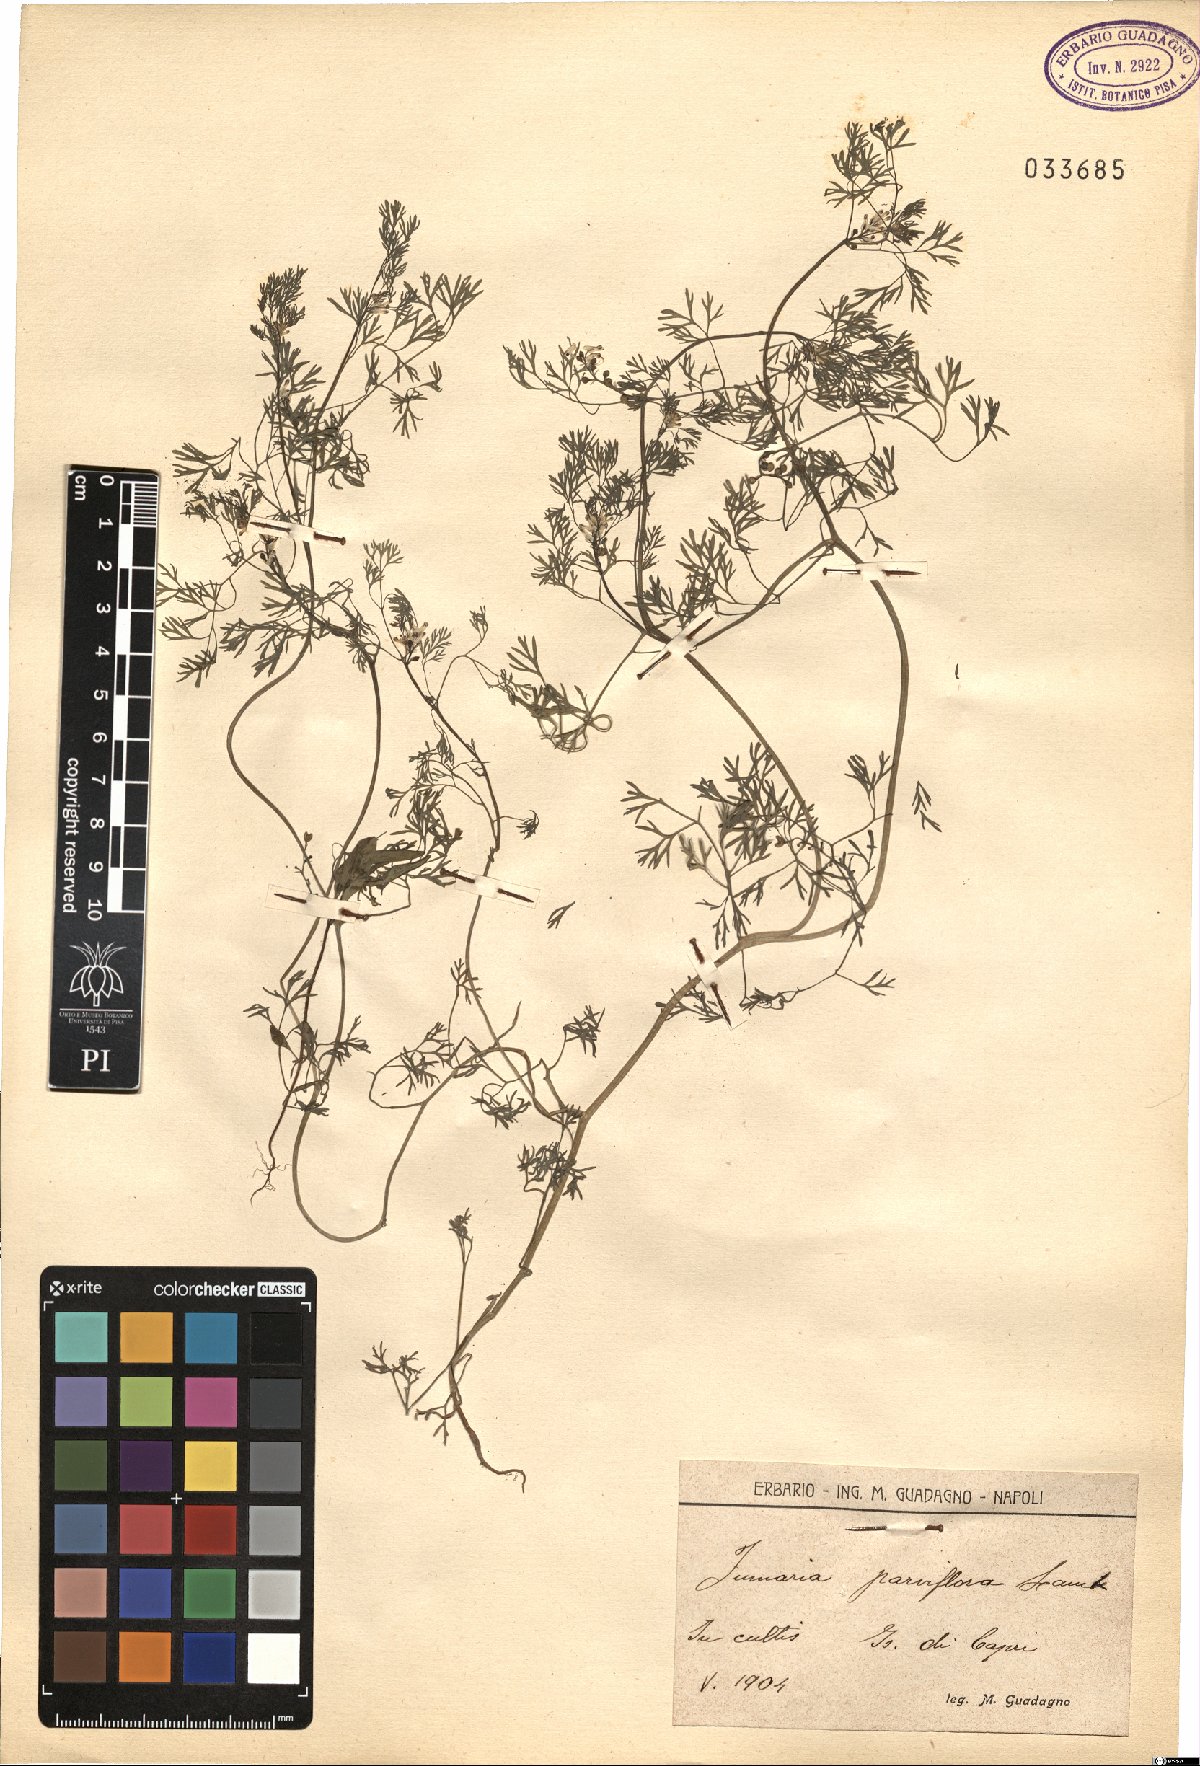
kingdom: Plantae
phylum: Tracheophyta
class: Magnoliopsida
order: Ranunculales
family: Papaveraceae
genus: Fumaria
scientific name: Fumaria parviflora
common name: Fine-leaved fumitory
